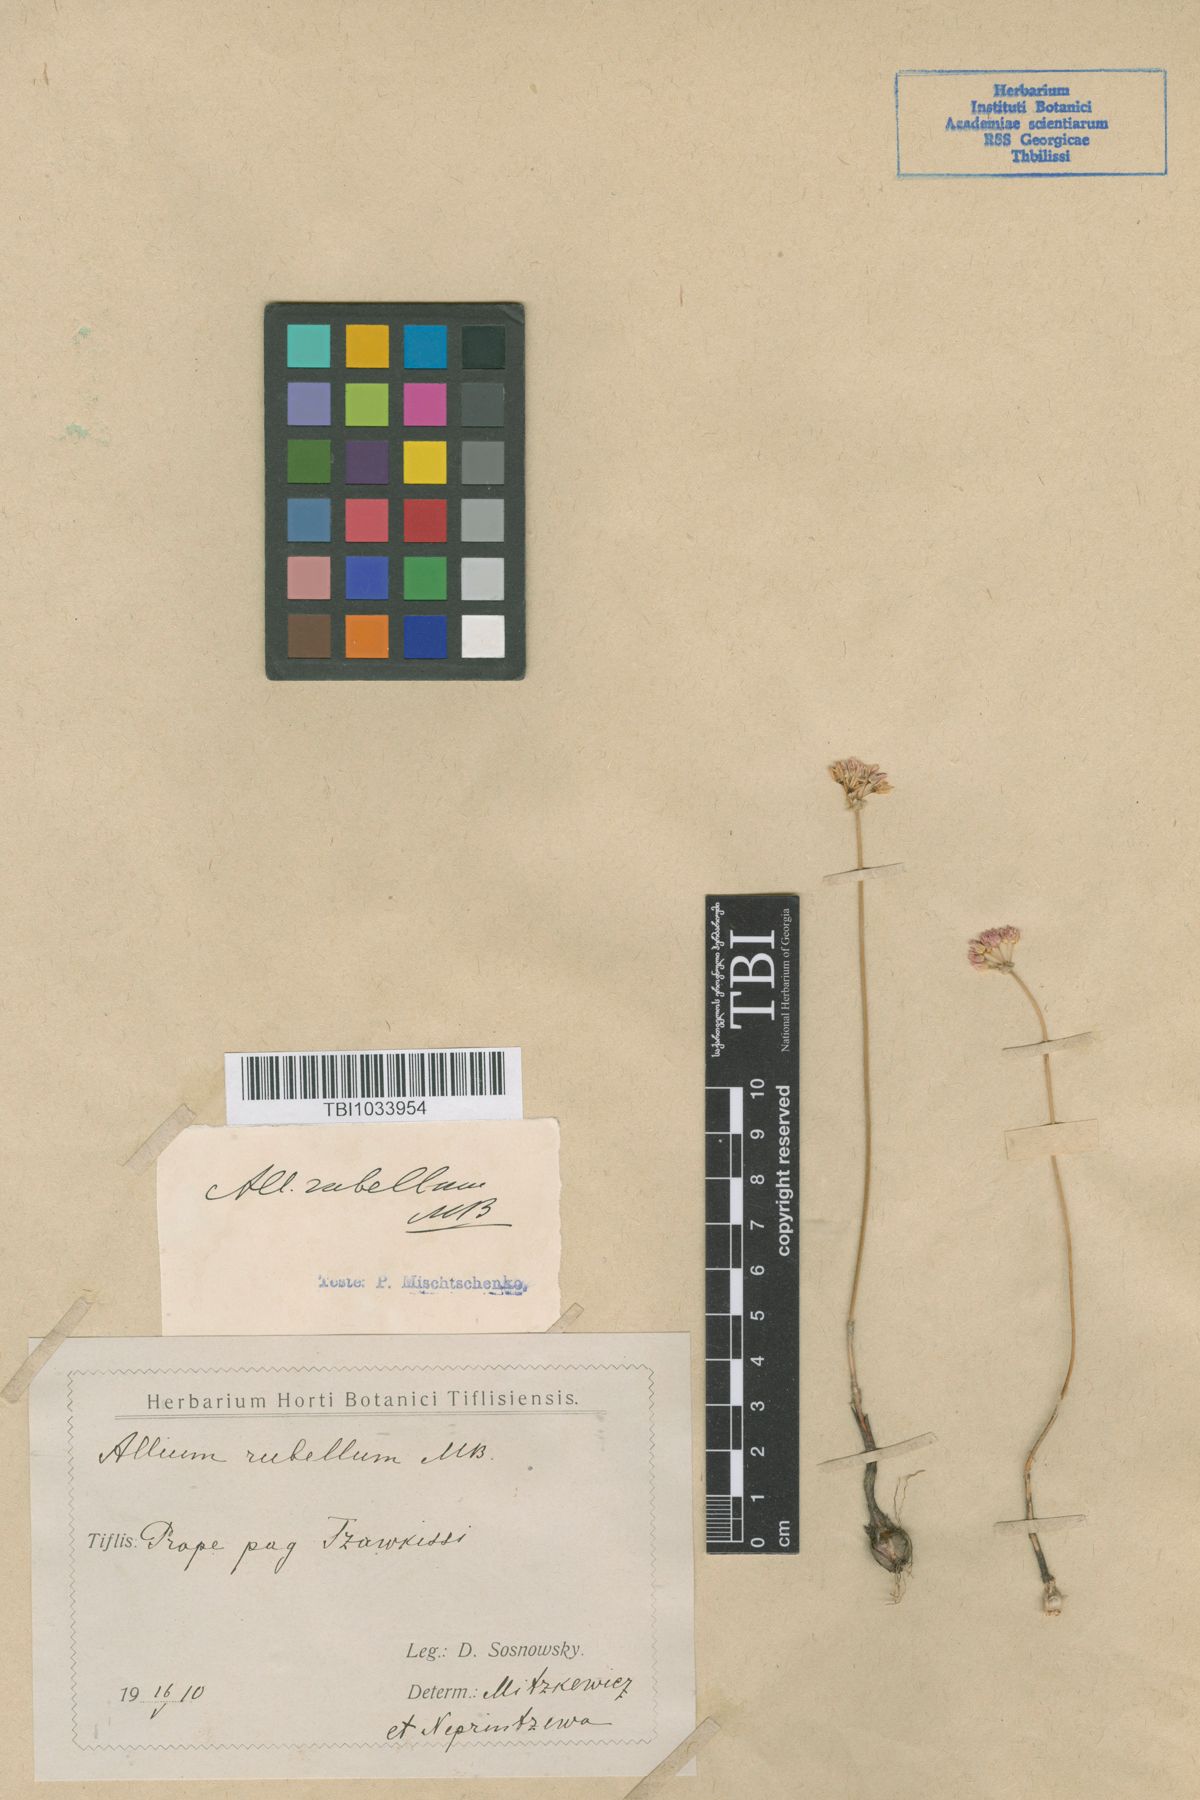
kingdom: Plantae
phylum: Tracheophyta
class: Liliopsida
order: Asparagales
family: Amaryllidaceae
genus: Allium
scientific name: Allium rubellum
